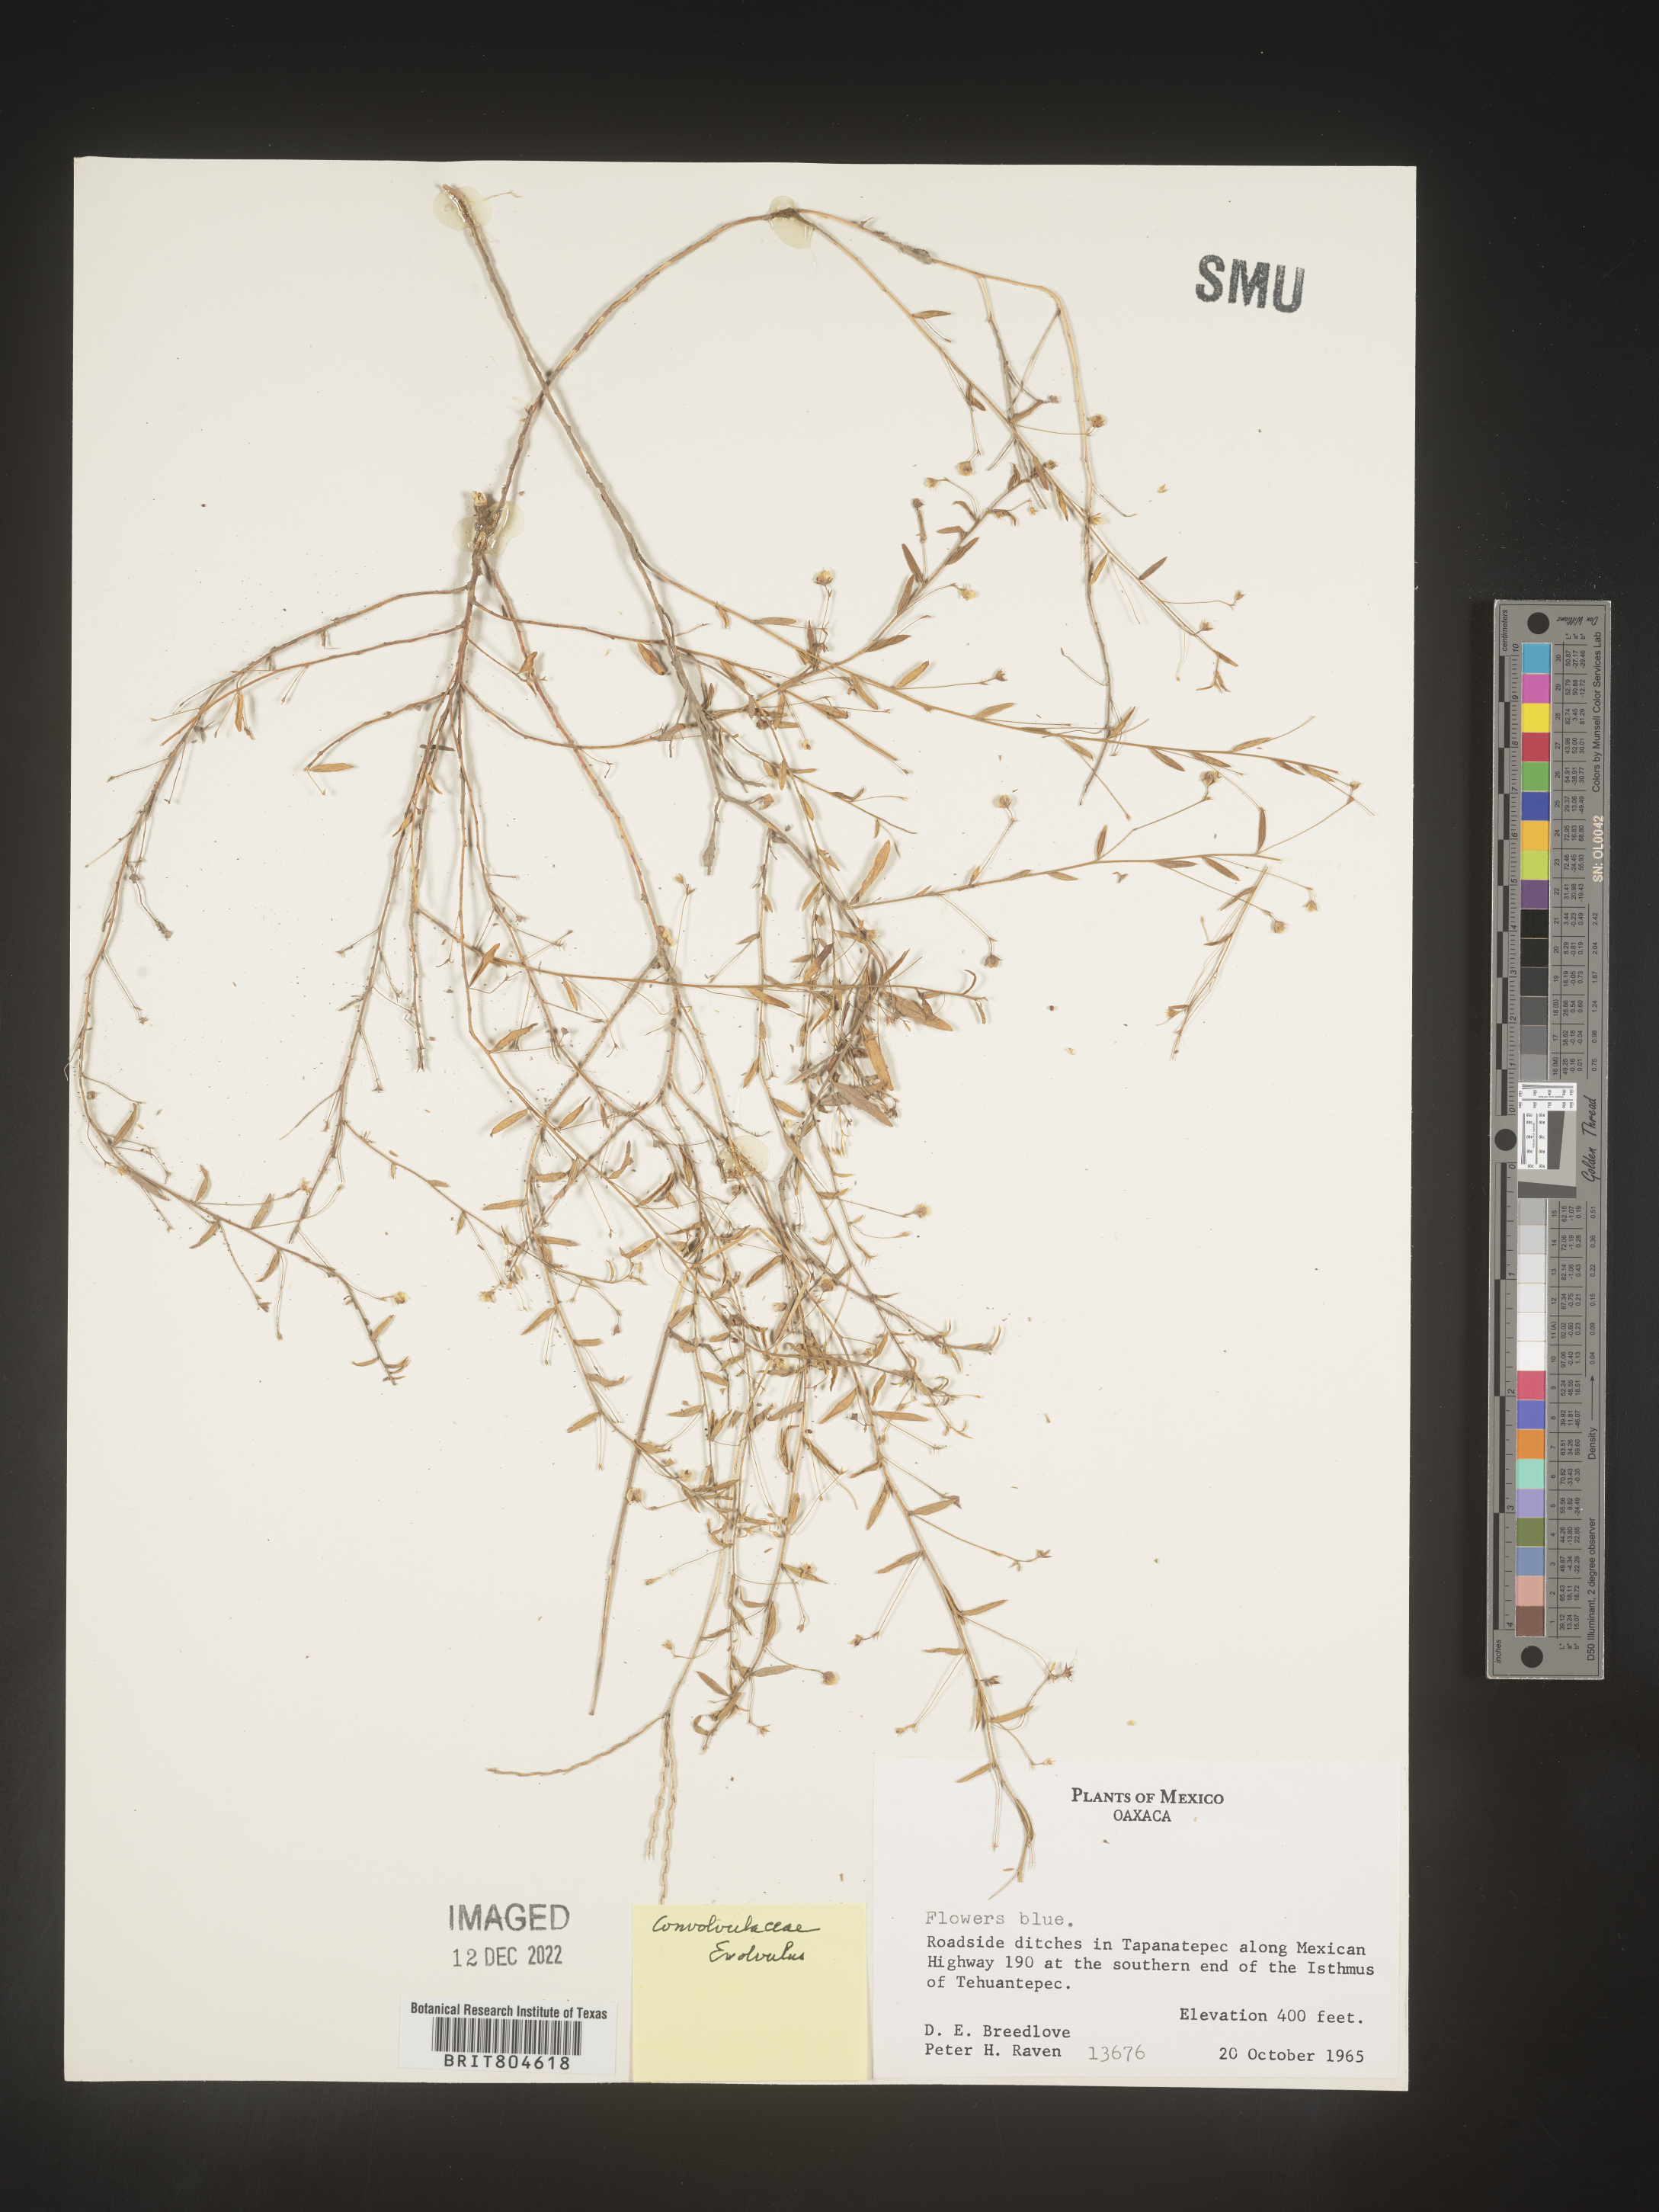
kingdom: Plantae
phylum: Tracheophyta
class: Magnoliopsida
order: Solanales
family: Convolvulaceae
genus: Evolvulus
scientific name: Evolvulus
